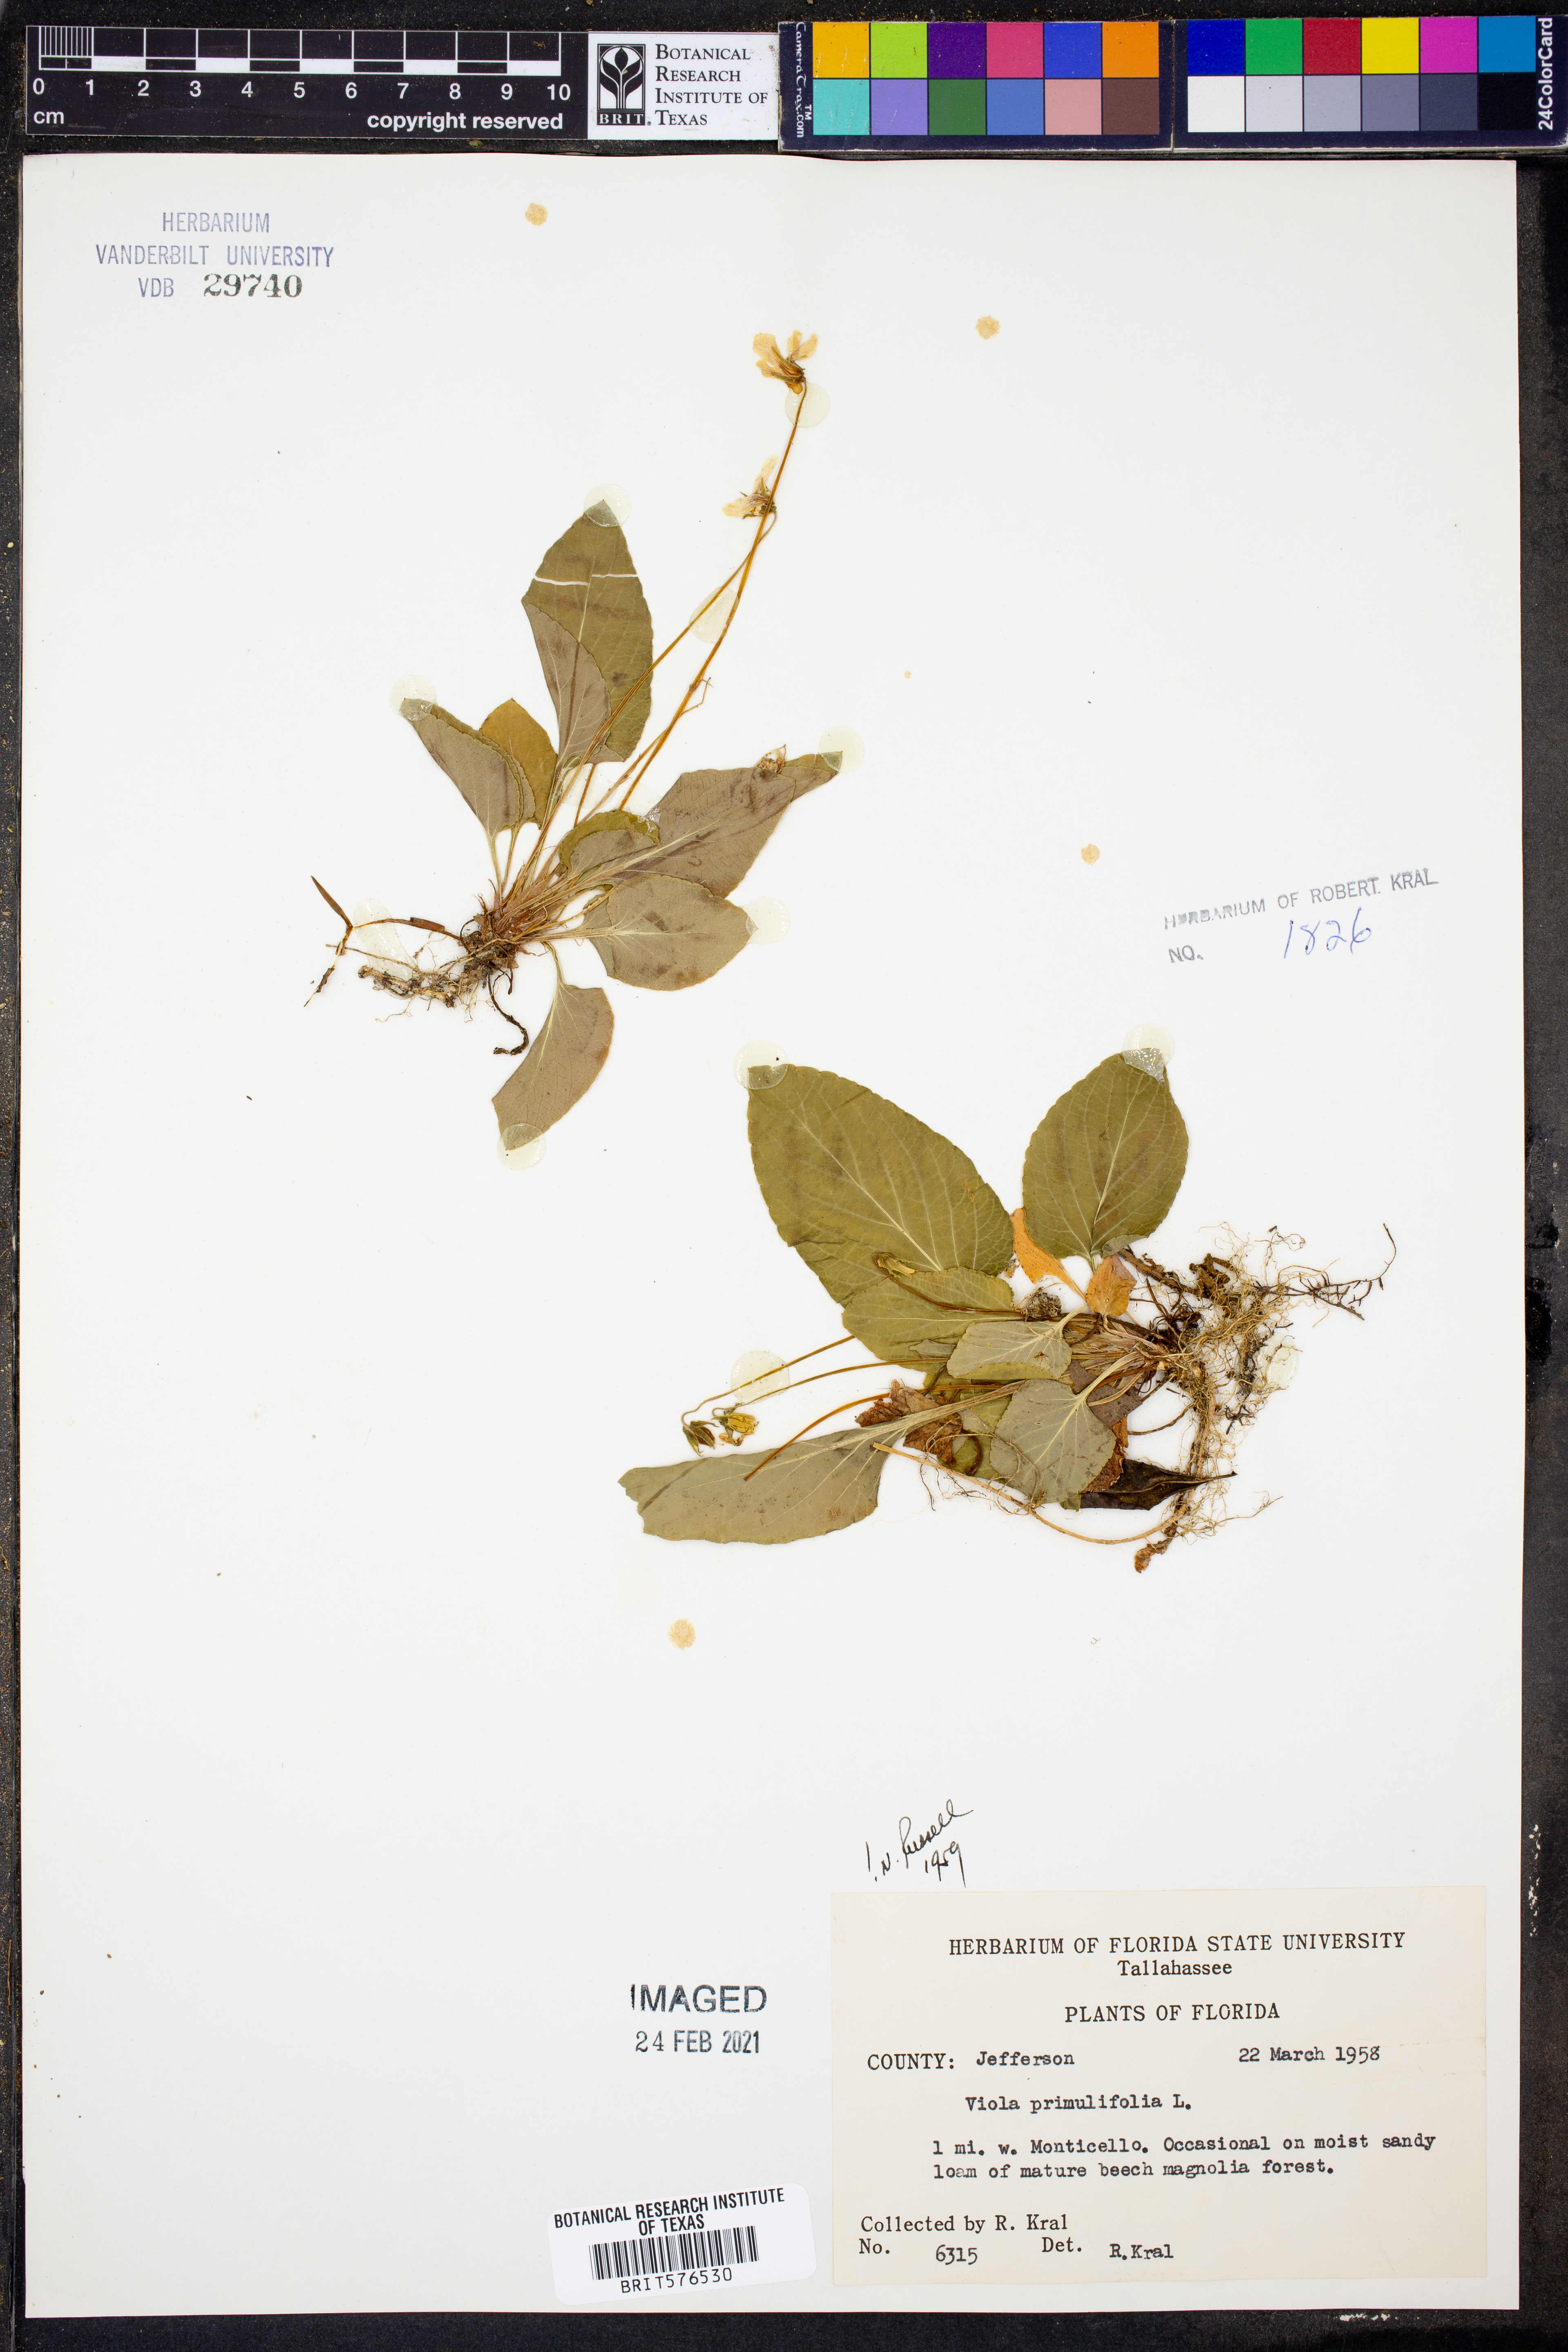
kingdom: Plantae
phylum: Tracheophyta
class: Magnoliopsida
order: Malpighiales
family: Violaceae
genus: Viola
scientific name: Viola primulifolia
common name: Primrose-leaf violet
